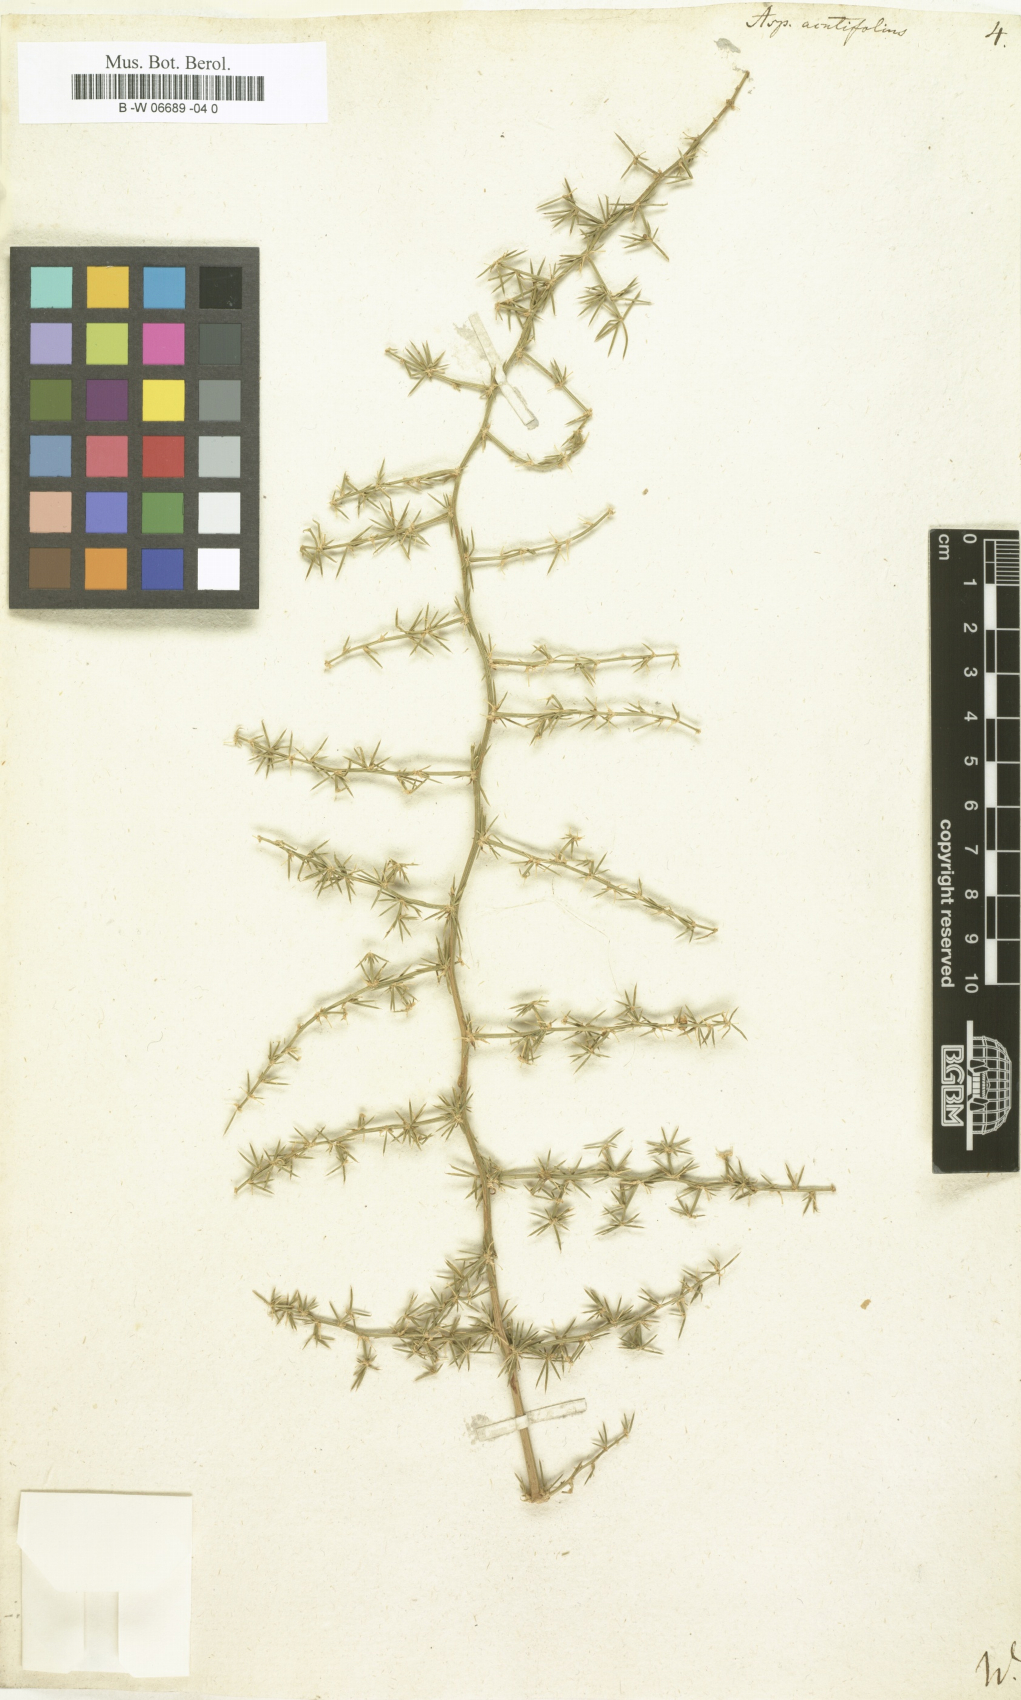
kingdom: Plantae
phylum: Tracheophyta
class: Liliopsida
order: Asparagales
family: Asparagaceae
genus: Asparagus
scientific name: Asparagus acutifolius
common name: Wild asparagus
